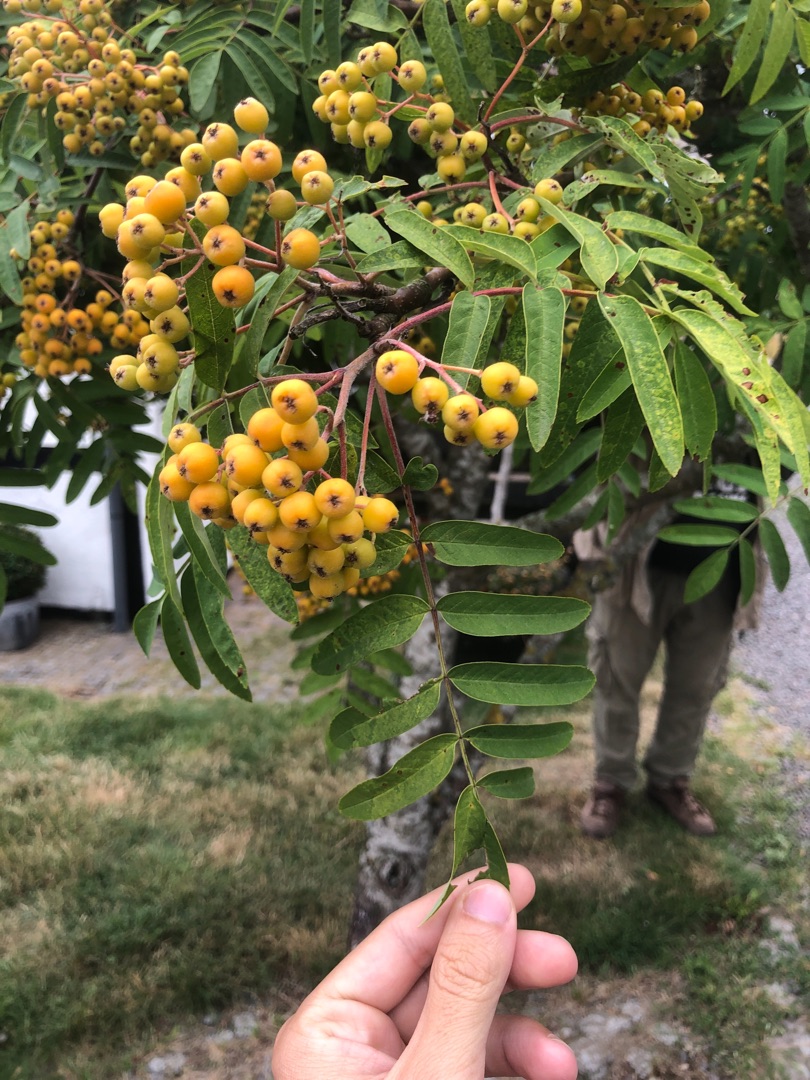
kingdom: Plantae
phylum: Tracheophyta
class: Magnoliopsida
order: Rosales
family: Rosaceae
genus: Sorbus
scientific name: Sorbus
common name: Rønneslægten
